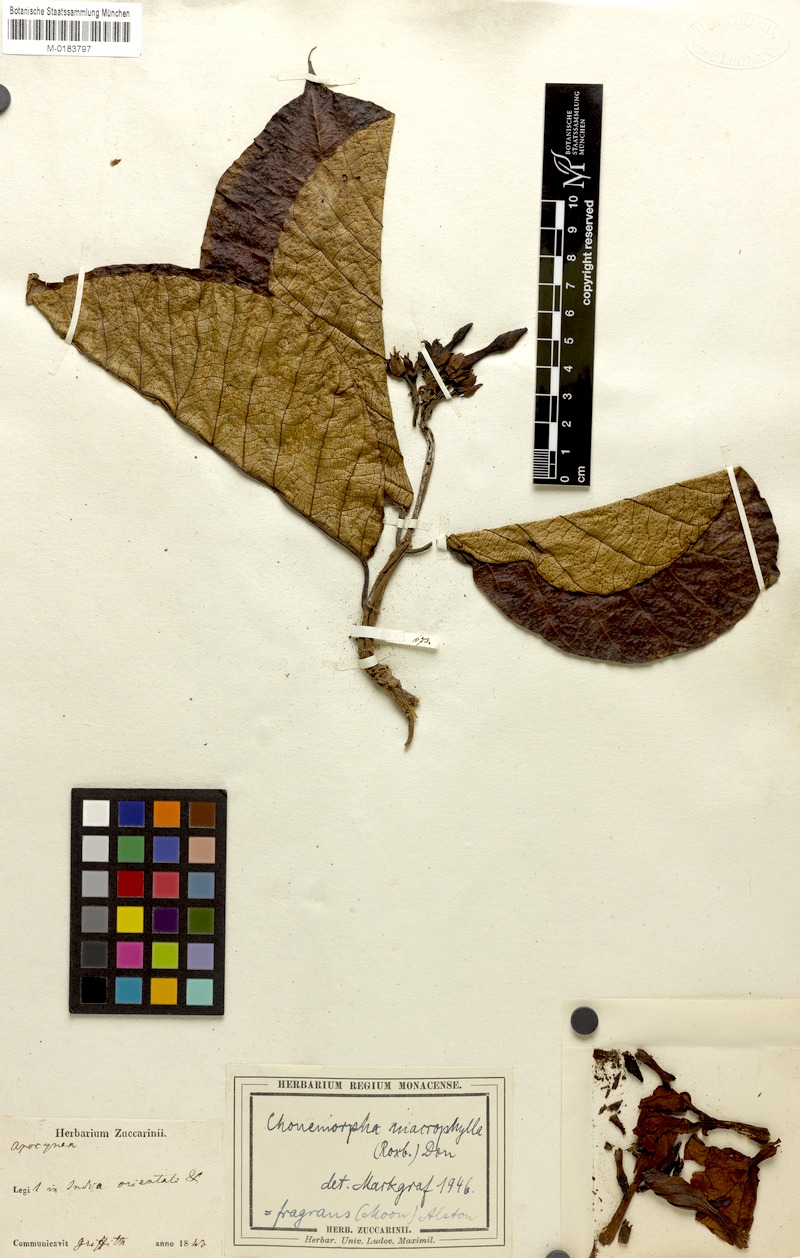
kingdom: Plantae
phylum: Tracheophyta
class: Magnoliopsida
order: Gentianales
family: Apocynaceae
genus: Chonemorpha
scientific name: Chonemorpha fragrans
